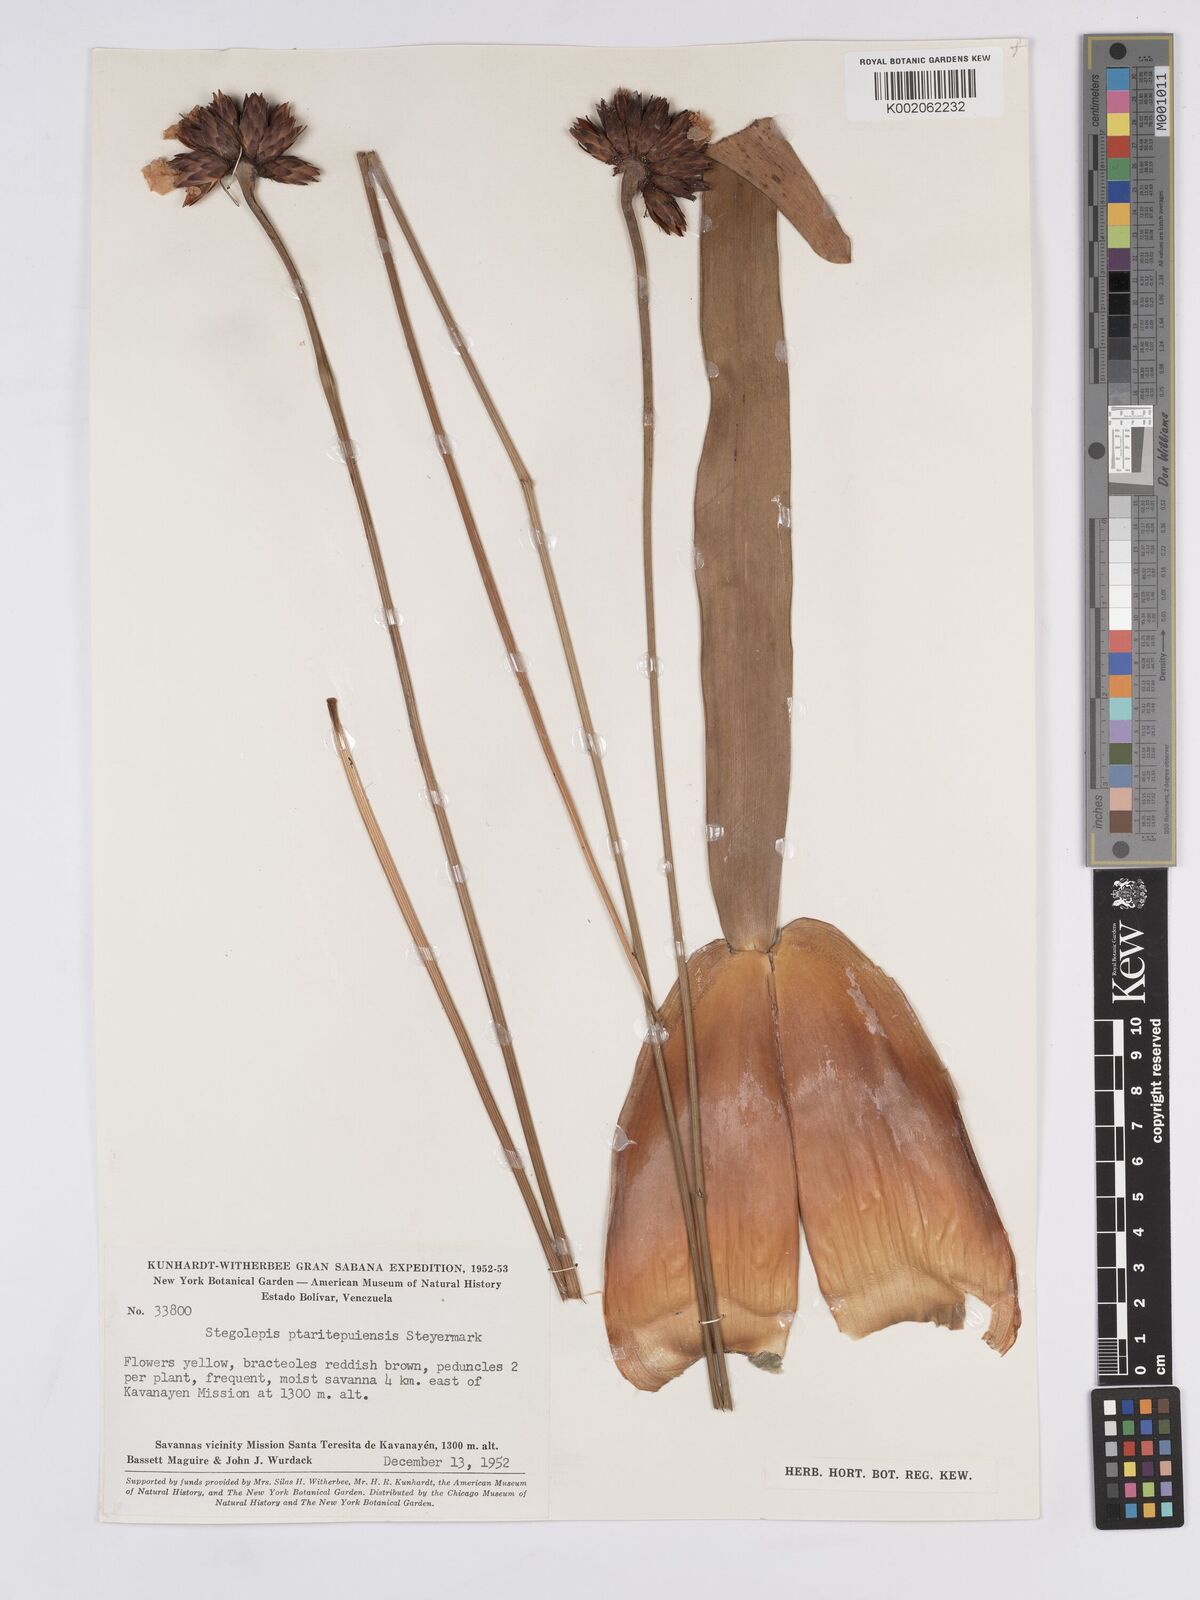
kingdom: Plantae
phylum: Tracheophyta
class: Liliopsida
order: Poales
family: Rapateaceae
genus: Stegolepis
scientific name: Stegolepis ptaritepuiensis
